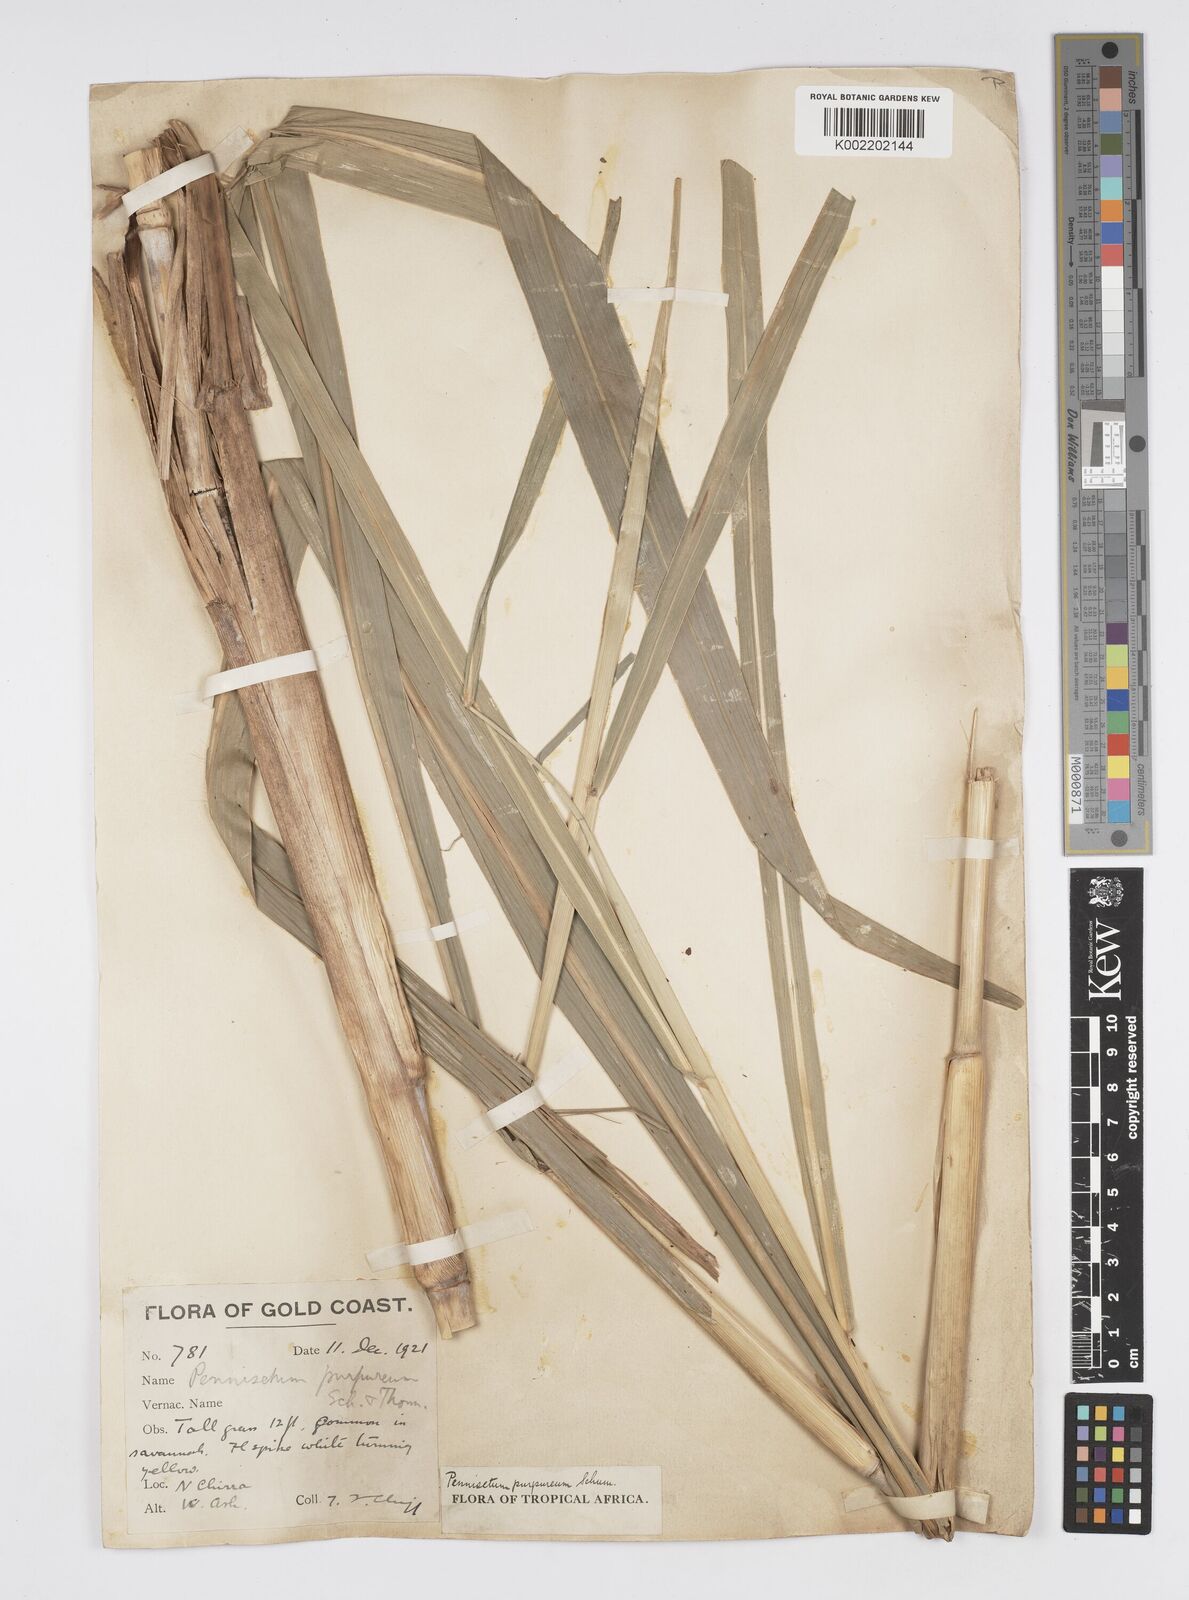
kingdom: Plantae
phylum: Tracheophyta
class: Liliopsida
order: Poales
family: Poaceae
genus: Cenchrus
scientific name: Cenchrus purpureus
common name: Elephant grass
